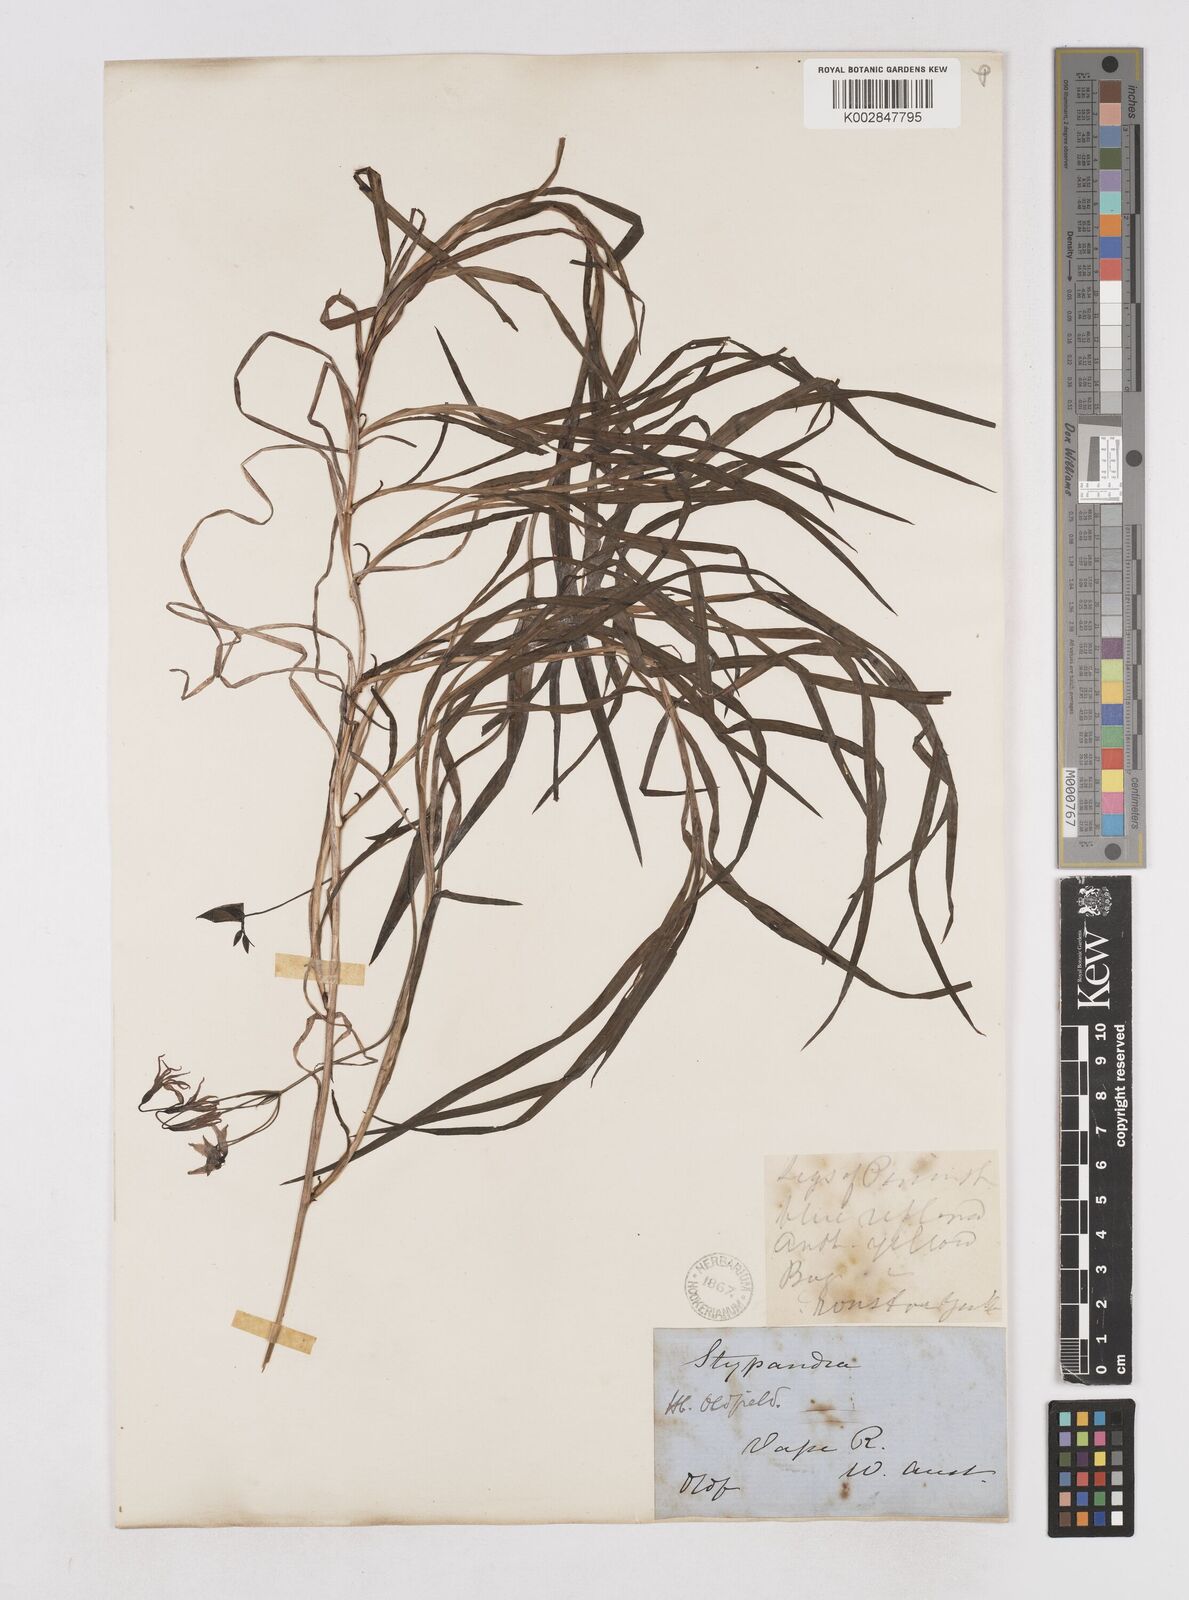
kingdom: Plantae
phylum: Tracheophyta
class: Liliopsida
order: Asparagales
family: Asphodelaceae
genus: Stypandra
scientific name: Stypandra glauca
